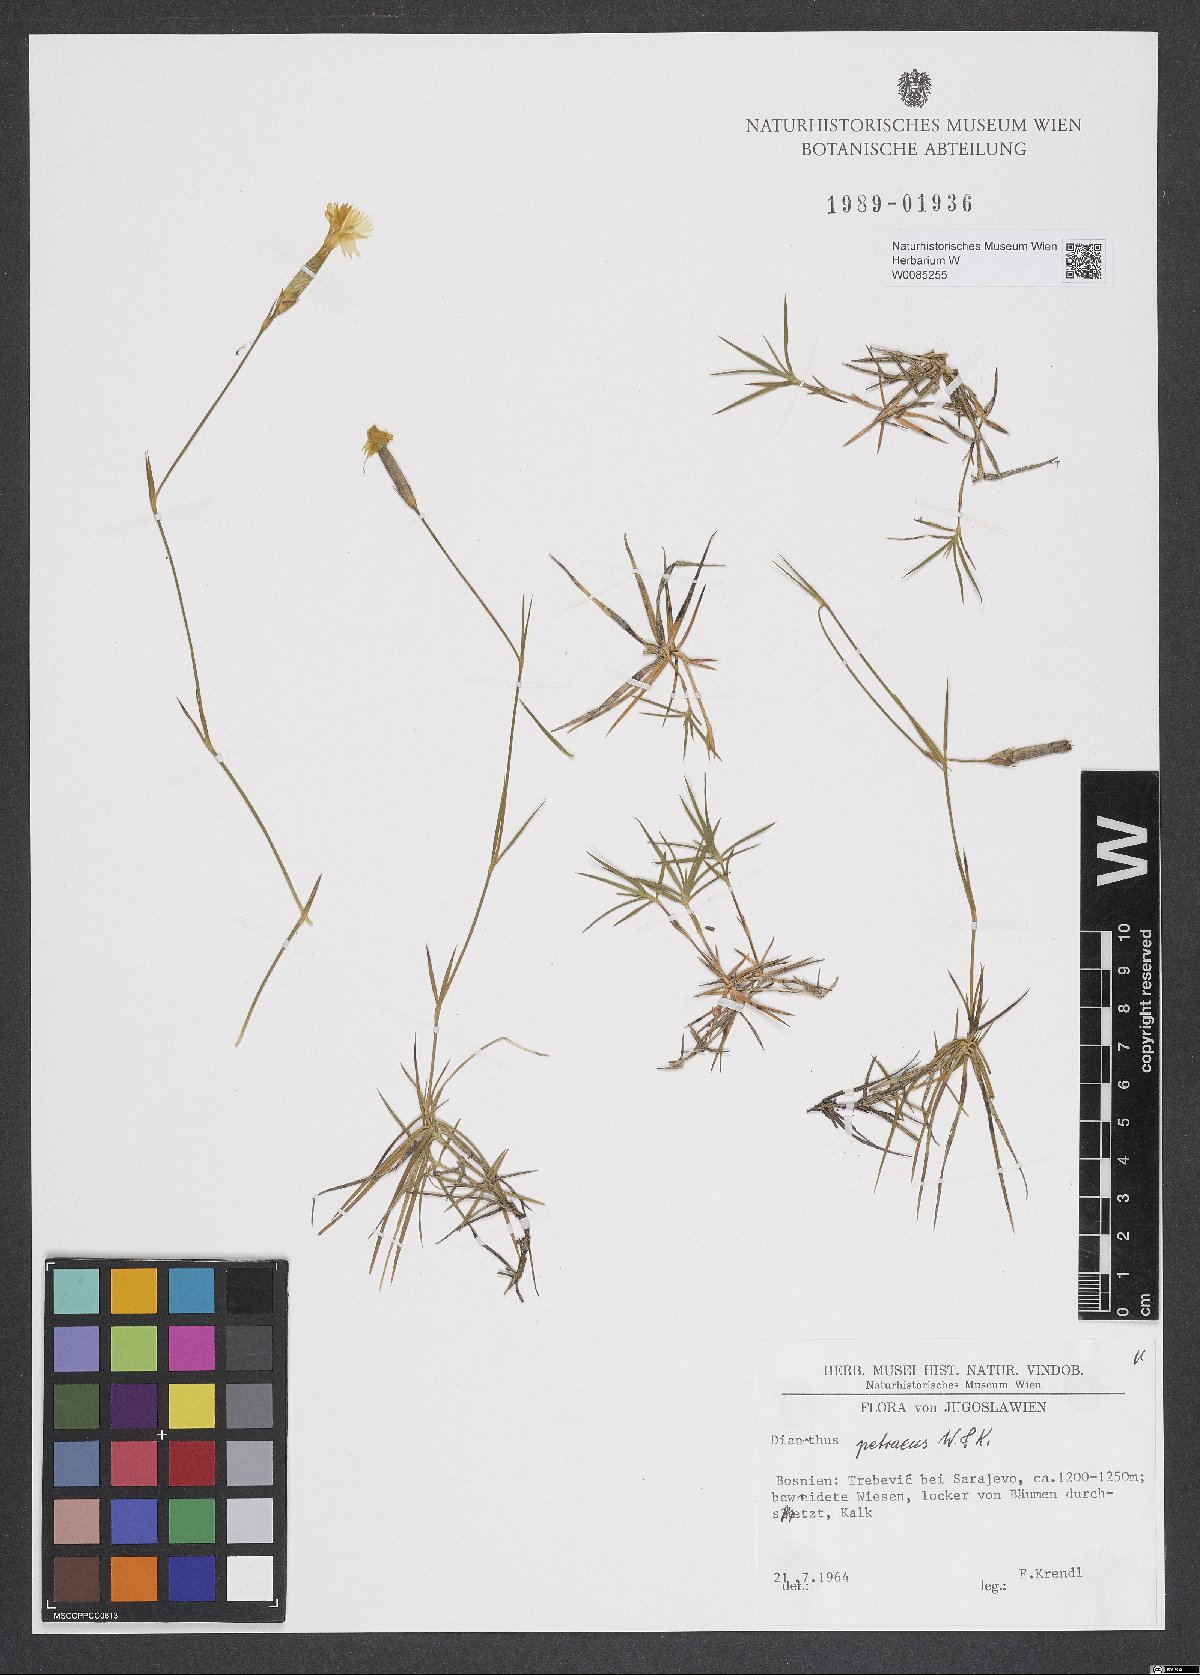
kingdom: Plantae
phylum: Tracheophyta
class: Magnoliopsida
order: Caryophyllales
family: Caryophyllaceae
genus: Dianthus
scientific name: Dianthus petraeus
